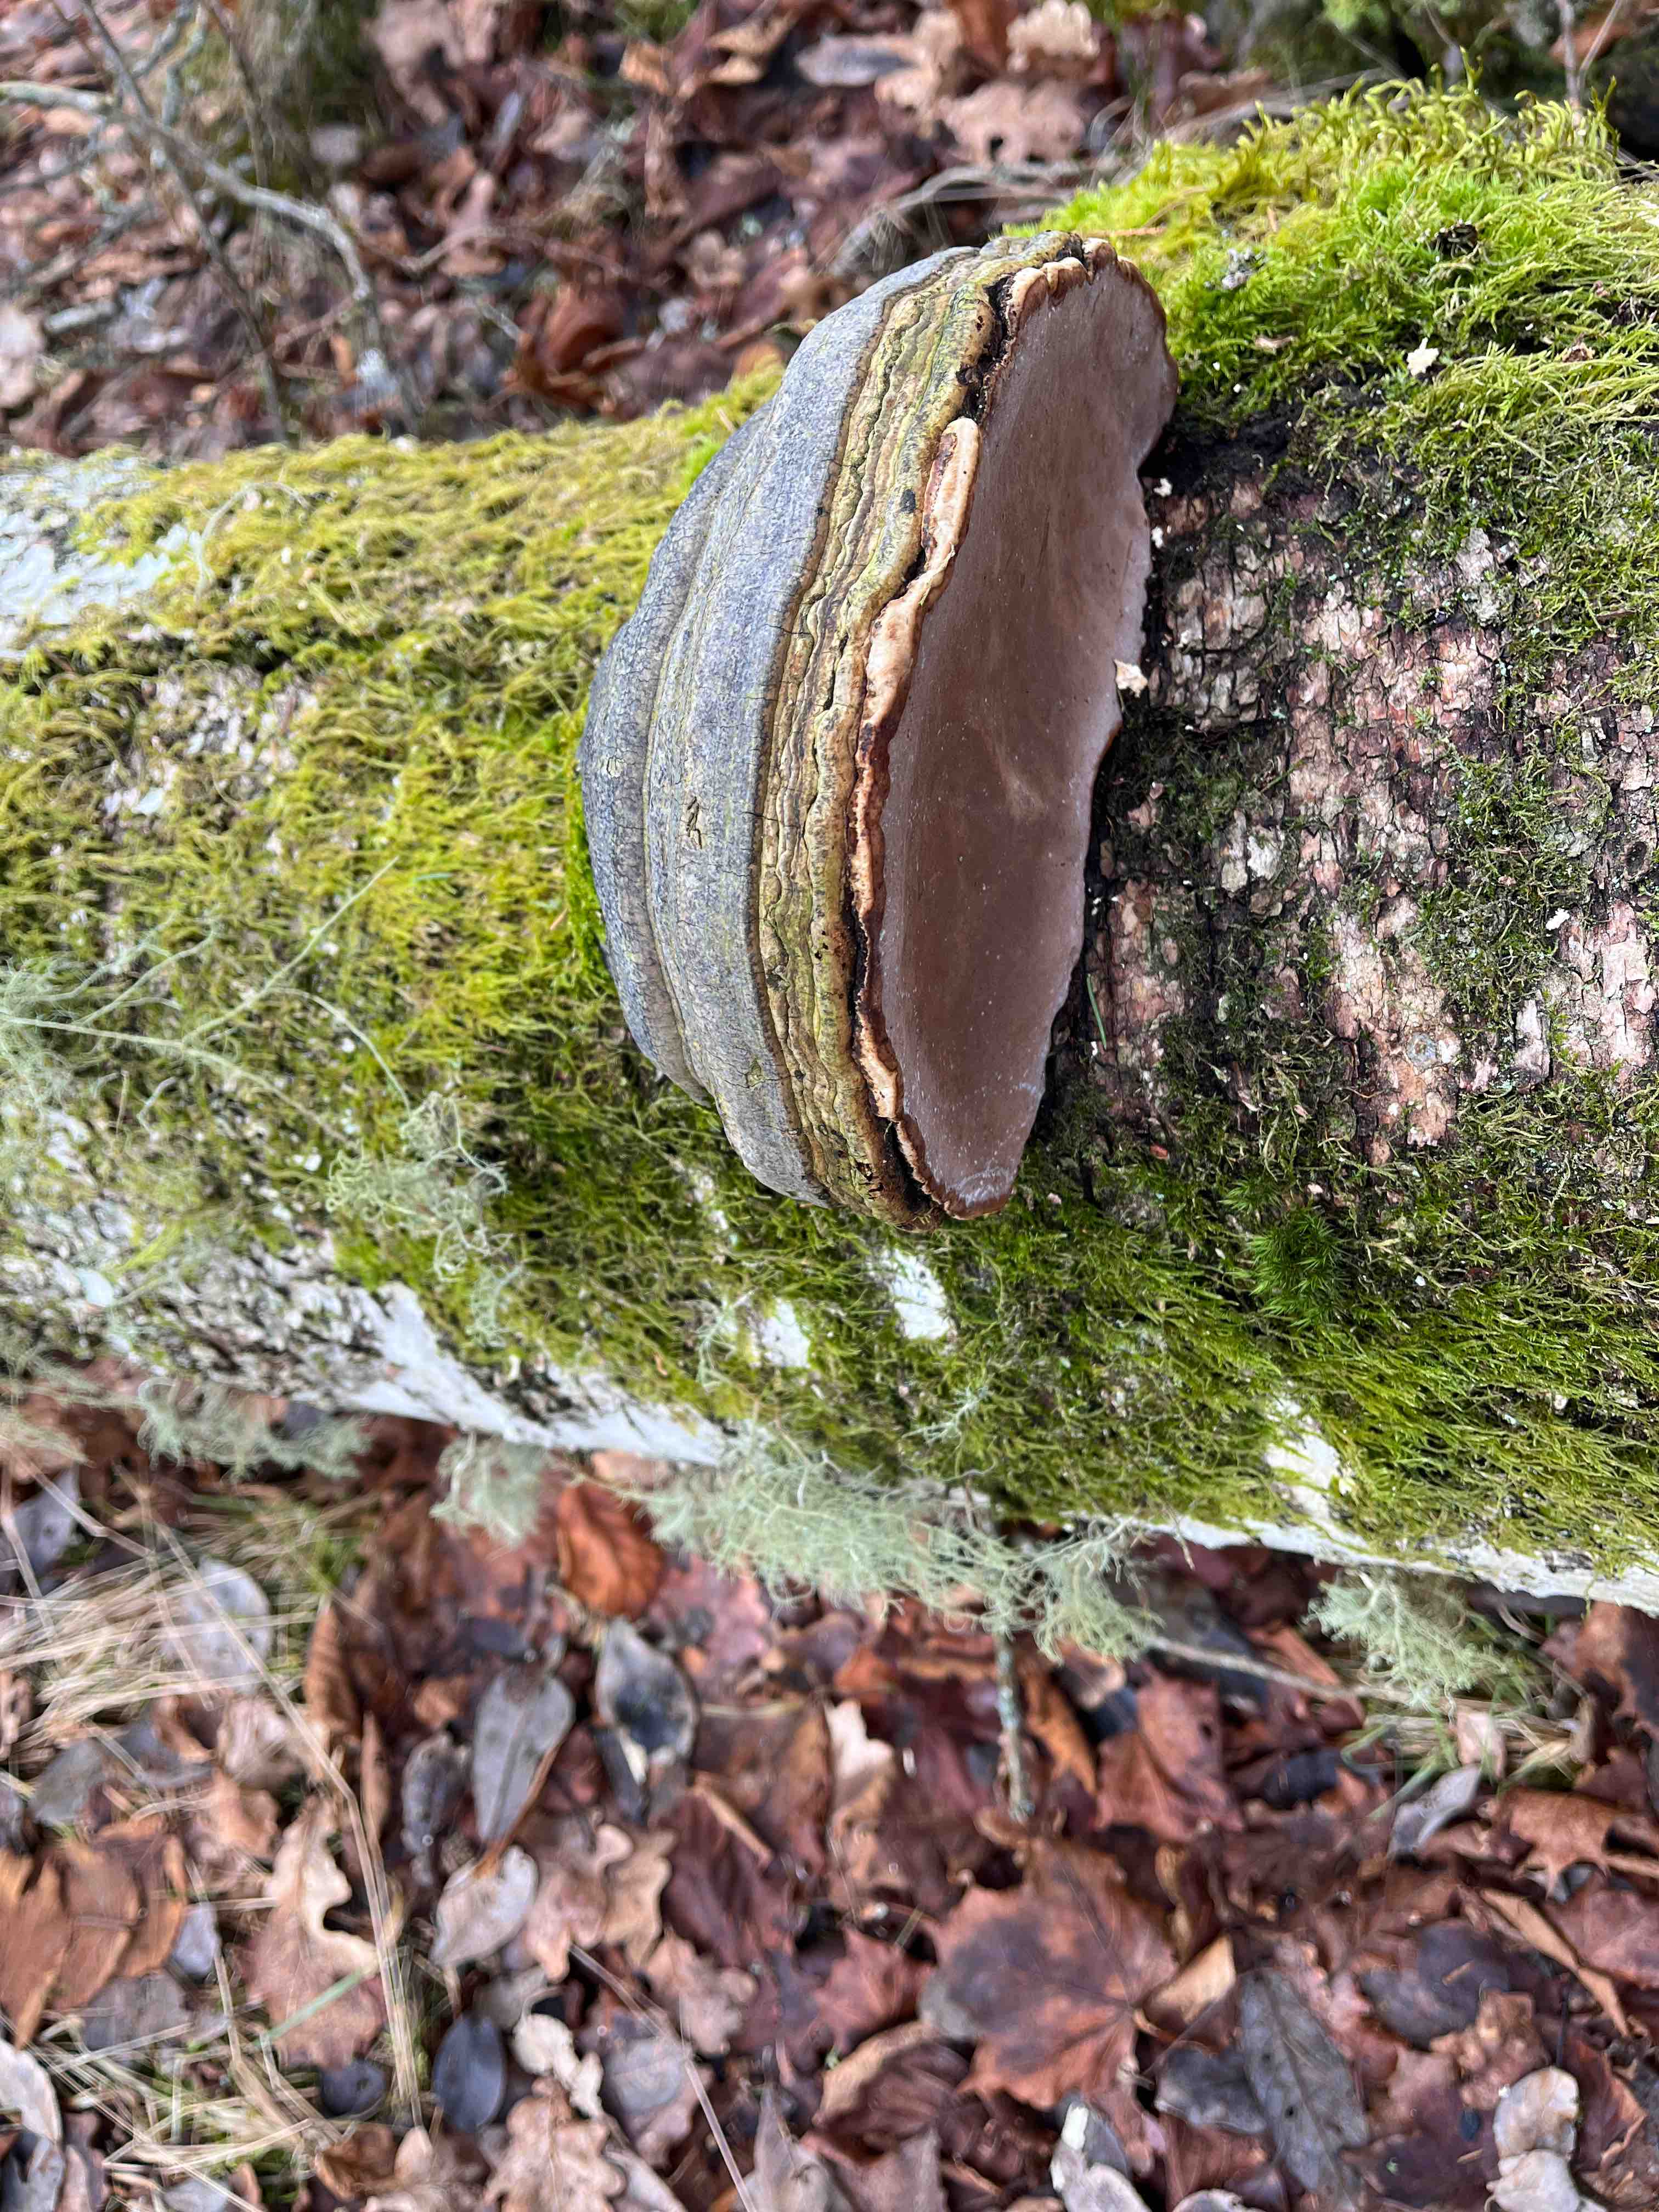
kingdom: Fungi
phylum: Basidiomycota
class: Agaricomycetes
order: Polyporales
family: Polyporaceae
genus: Fomes
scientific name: Fomes fomentarius
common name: tøndersvamp
